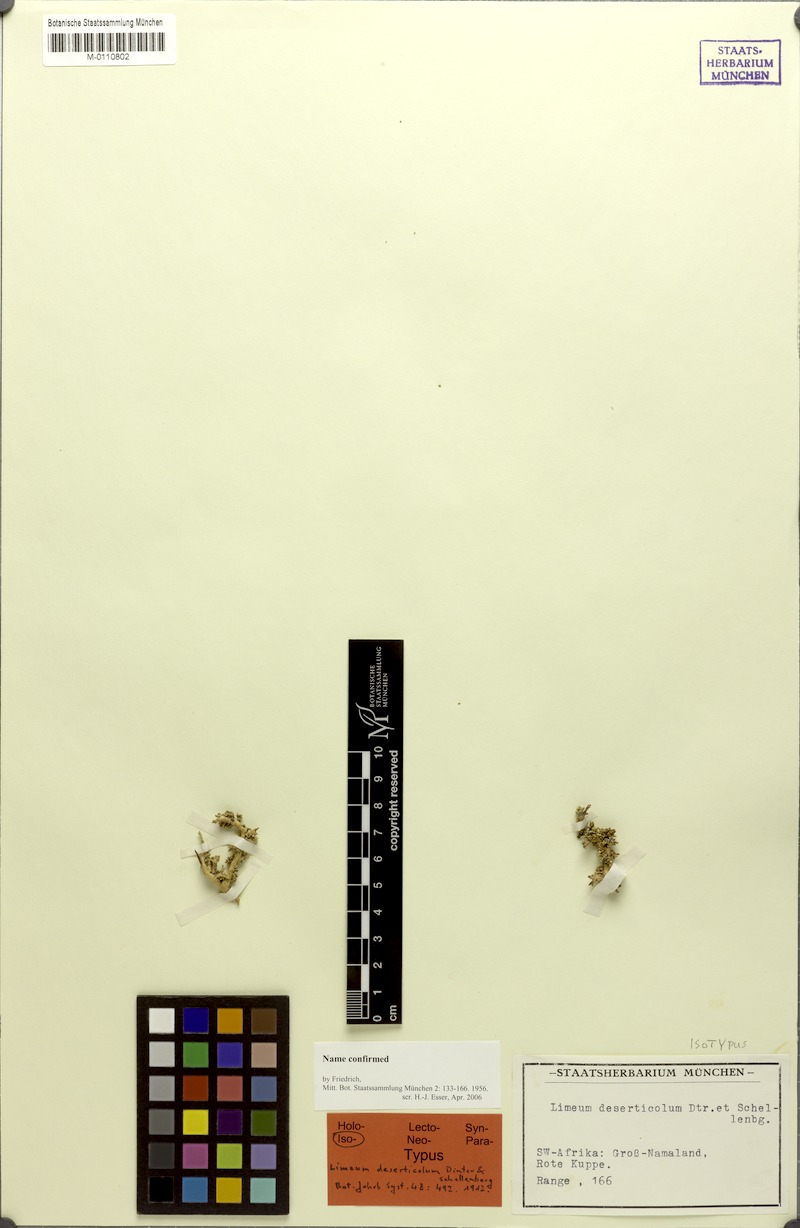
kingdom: Plantae
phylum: Tracheophyta
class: Magnoliopsida
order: Caryophyllales
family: Limeaceae
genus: Limeum
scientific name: Limeum deserticolum
